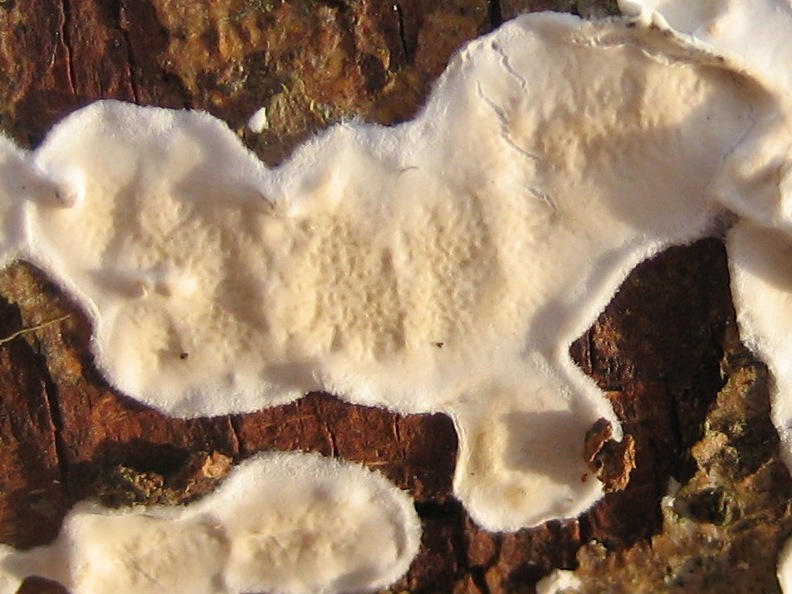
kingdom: Fungi
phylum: Basidiomycota
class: Agaricomycetes
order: Polyporales
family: Irpicaceae
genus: Byssomerulius
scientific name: Byssomerulius corium
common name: læder-åresvamp
